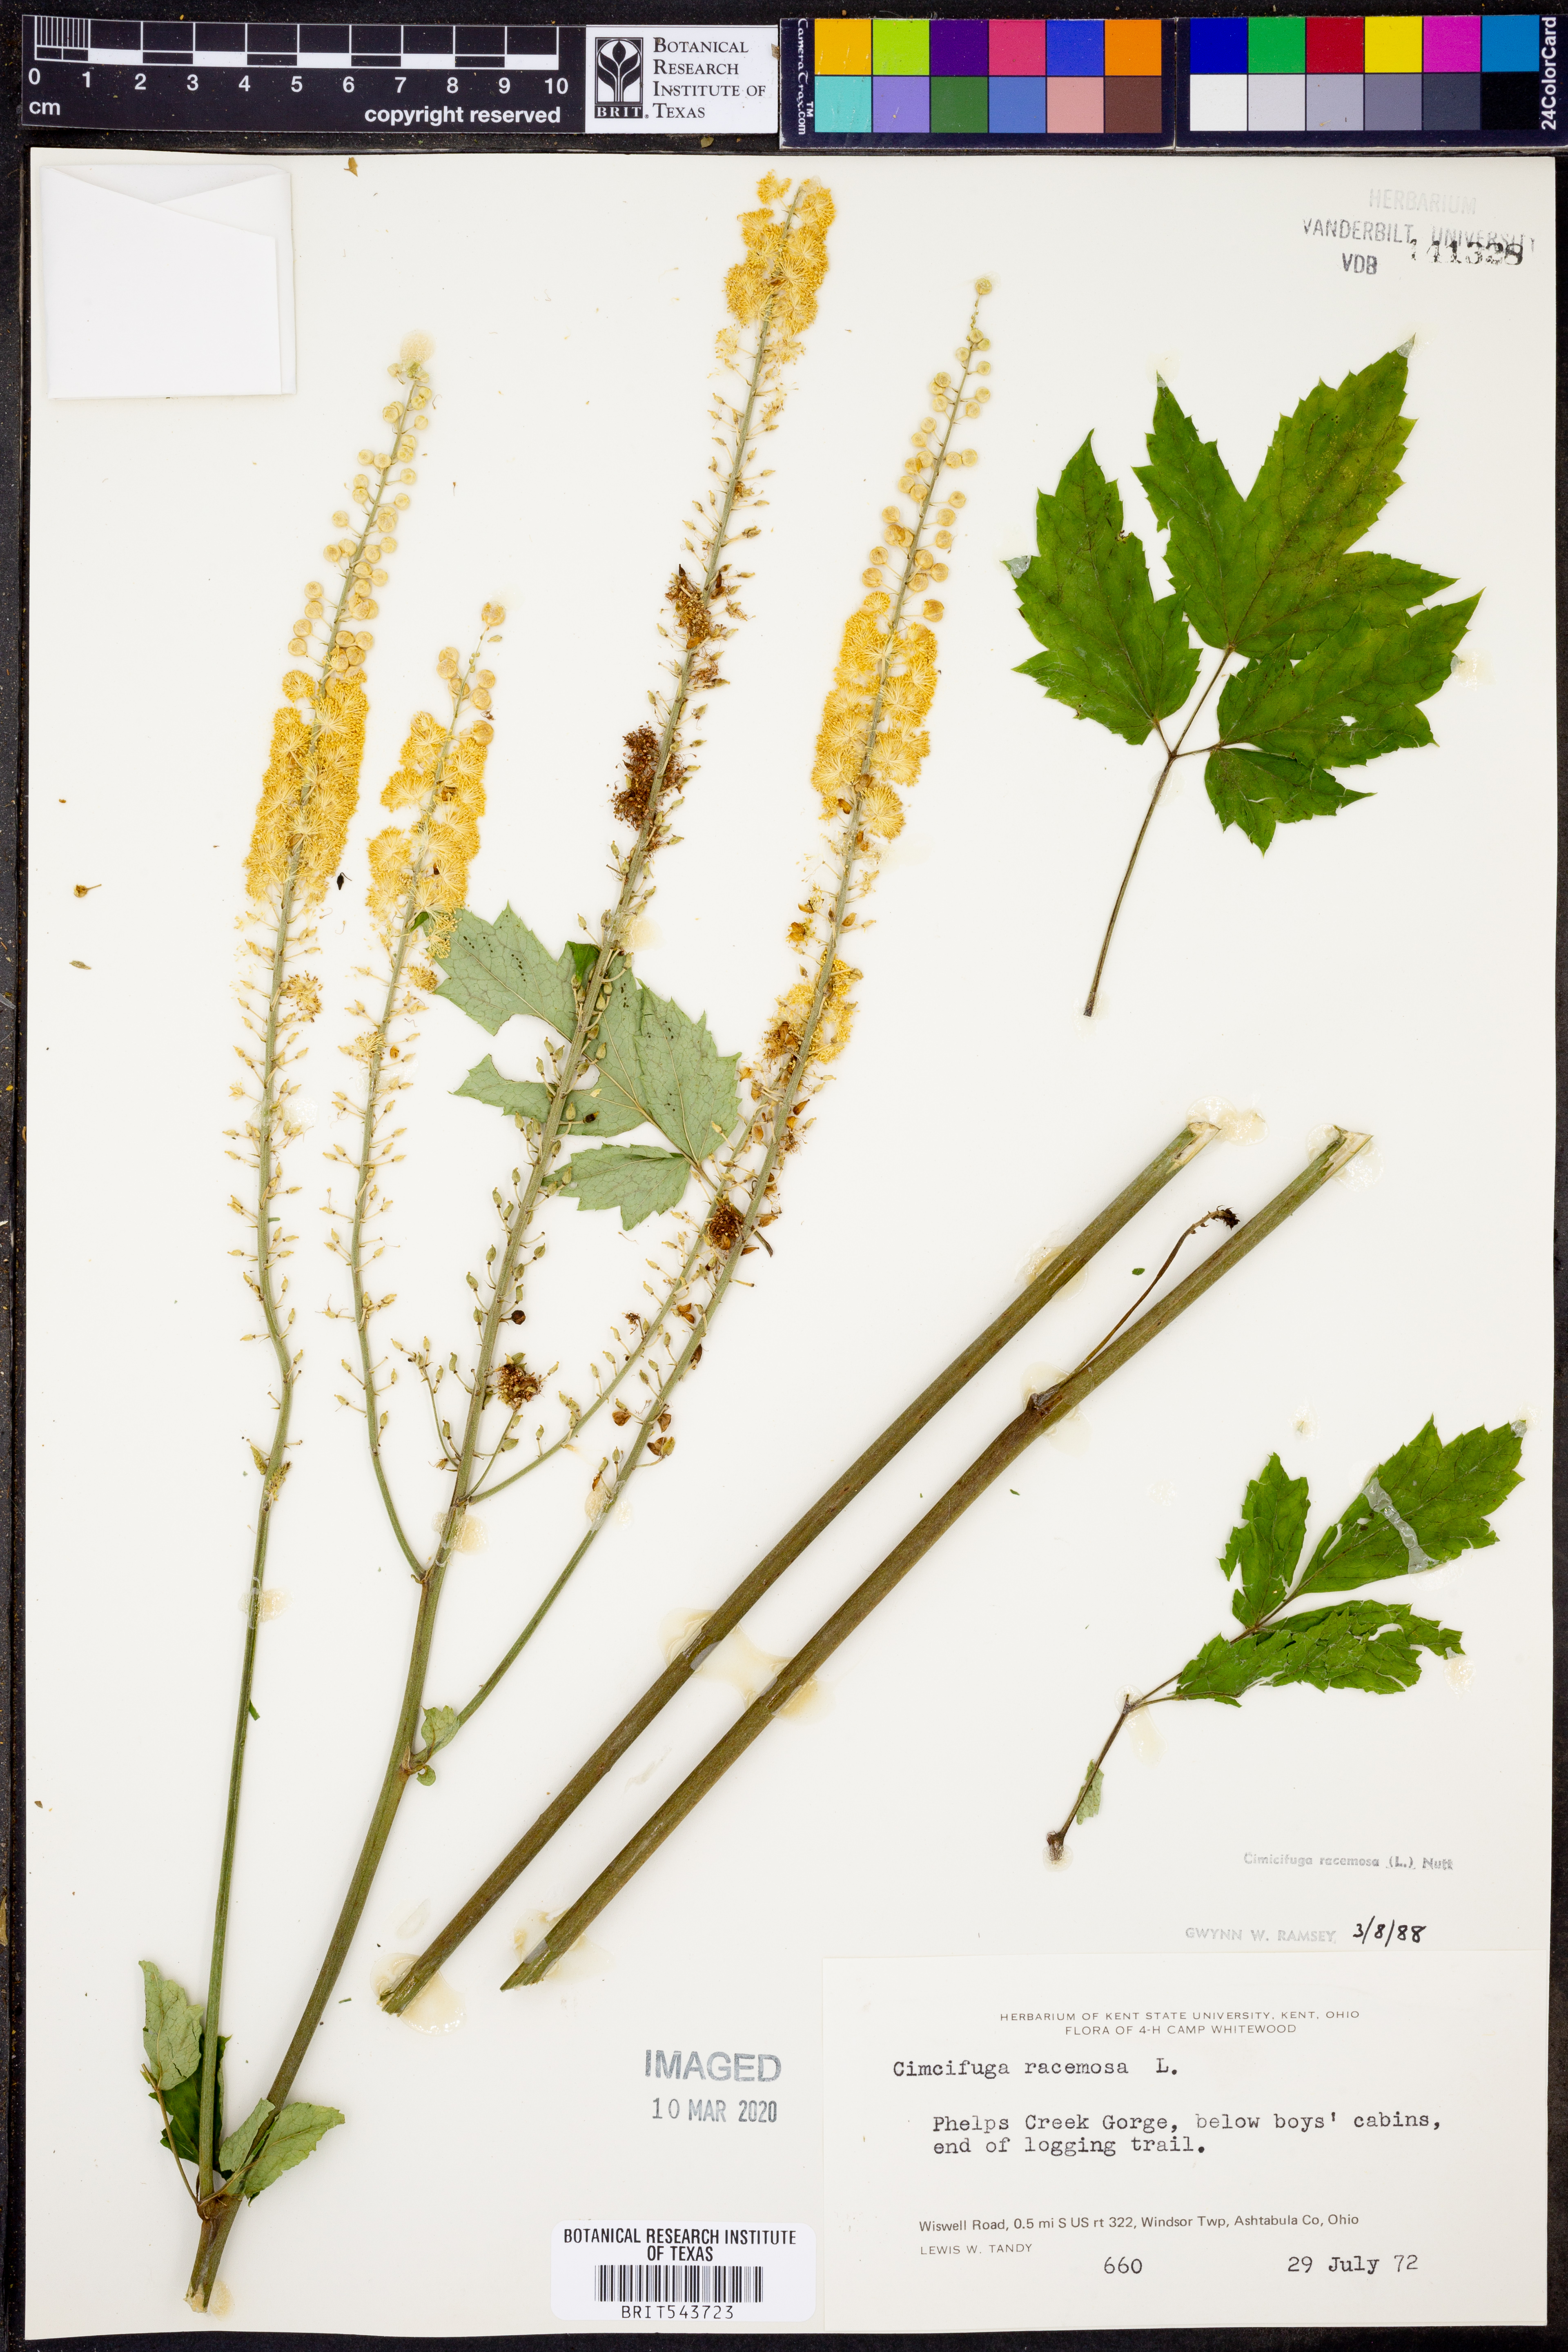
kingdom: Plantae
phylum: Tracheophyta
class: Magnoliopsida
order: Ranunculales
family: Ranunculaceae
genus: Actaea
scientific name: Actaea racemosa
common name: Black cohosh
